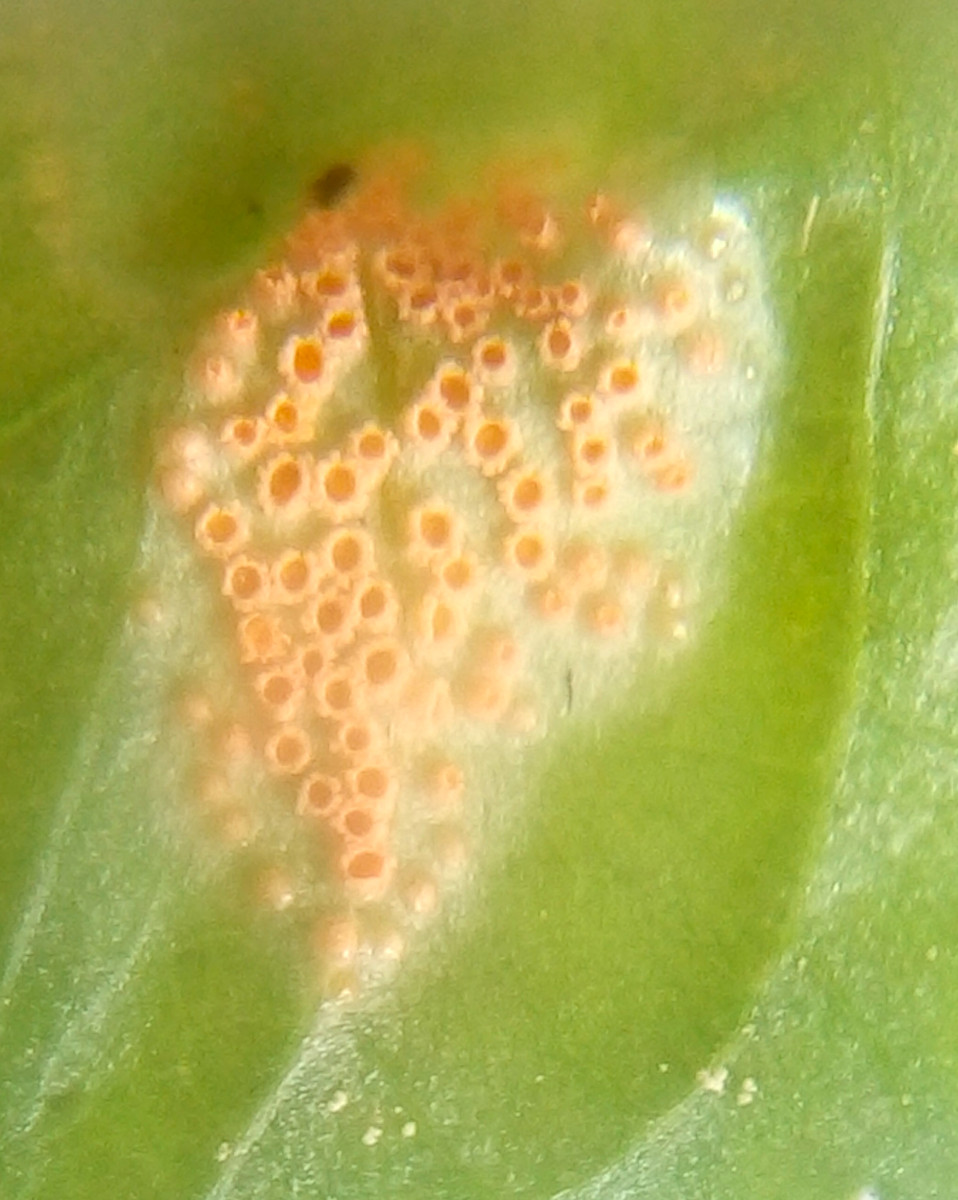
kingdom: Fungi
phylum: Basidiomycota
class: Pucciniomycetes
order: Pucciniales
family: Pucciniaceae
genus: Puccinia
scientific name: Puccinia violae
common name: viol-tvecellerust
